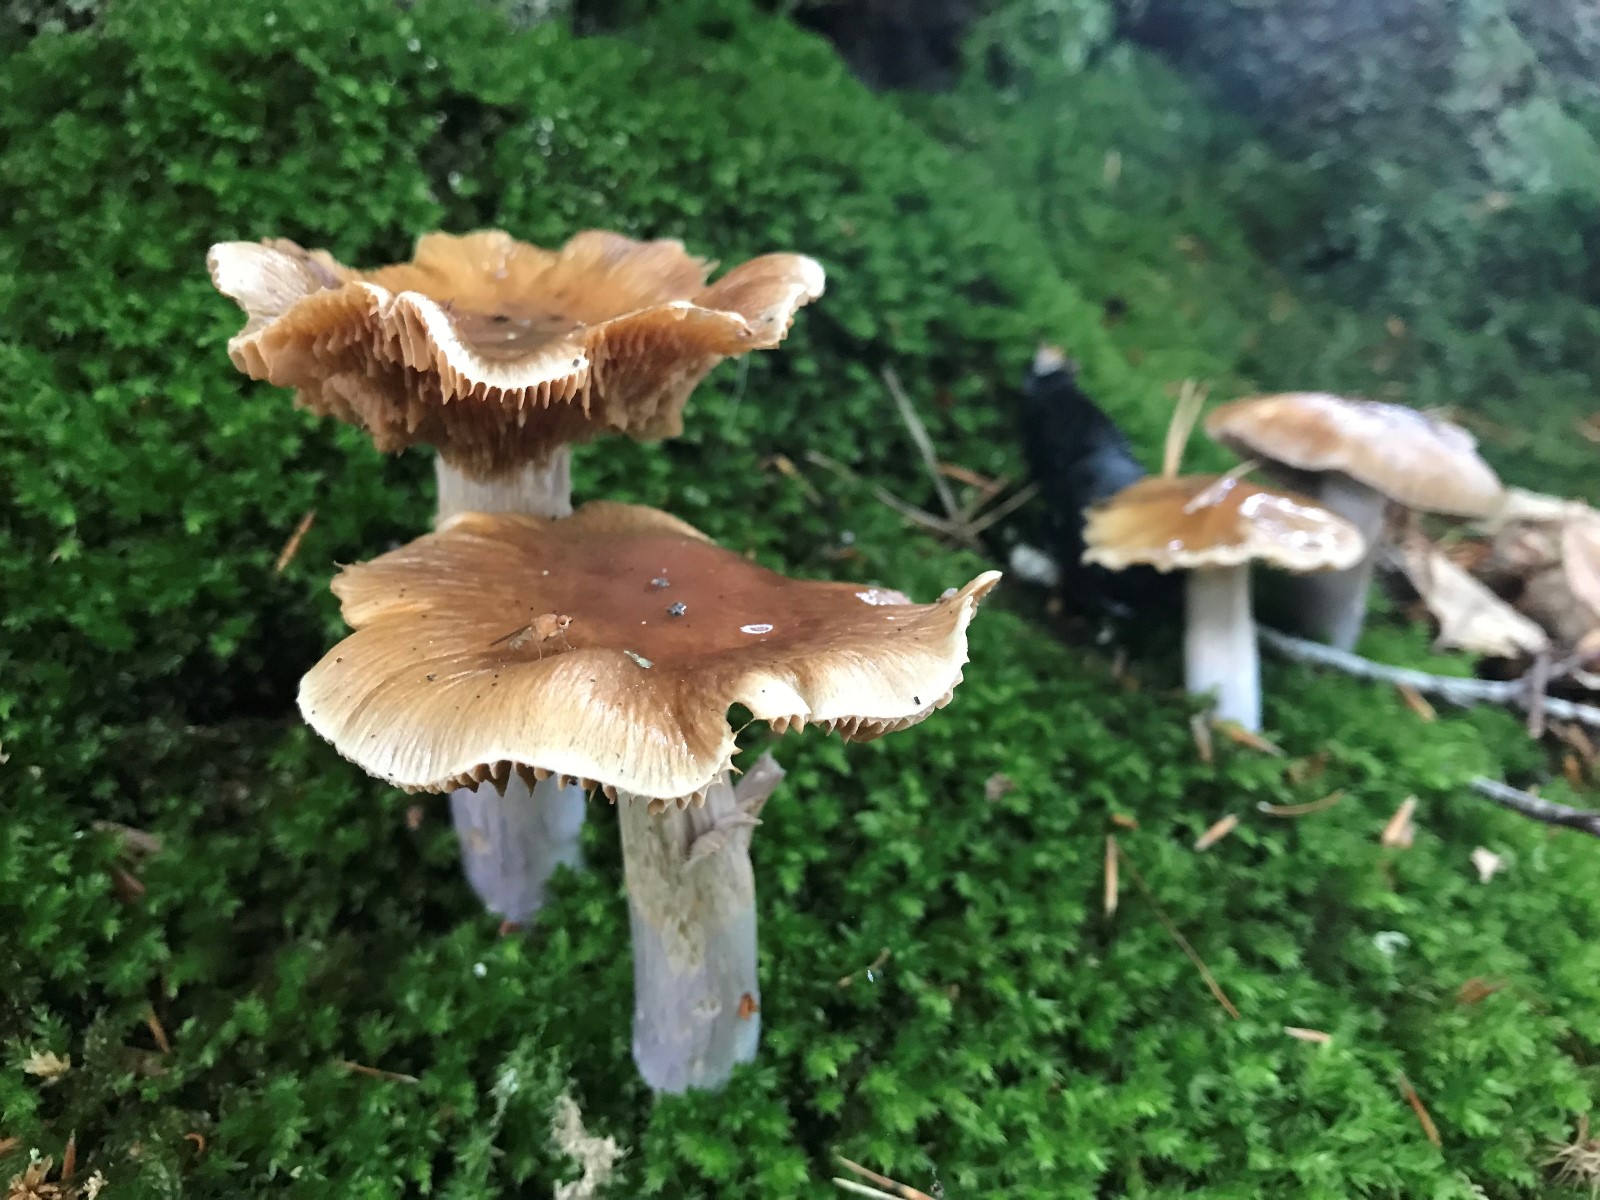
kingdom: Fungi
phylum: Basidiomycota
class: Agaricomycetes
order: Agaricales
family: Cortinariaceae
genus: Cortinarius
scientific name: Cortinarius elatior
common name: høj slørhat
